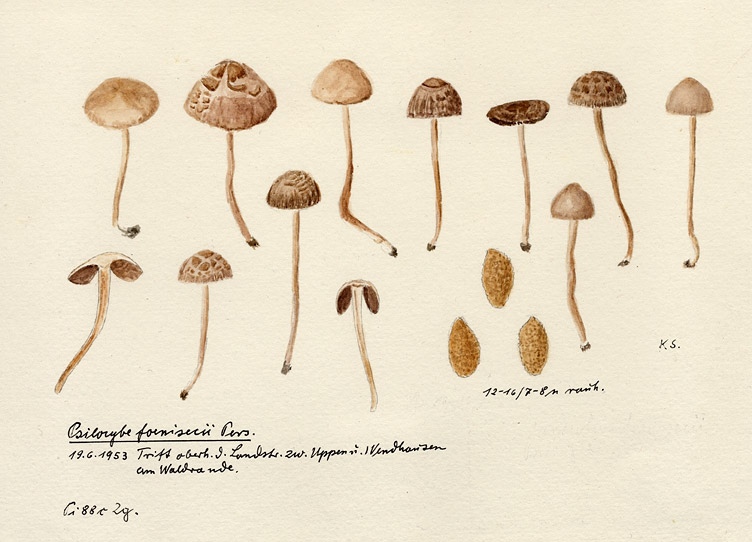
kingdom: Fungi
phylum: Basidiomycota
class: Agaricomycetes
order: Agaricales
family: Bolbitiaceae
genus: Panaeolina
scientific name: Panaeolina foenisecii
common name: Brown hay cap
